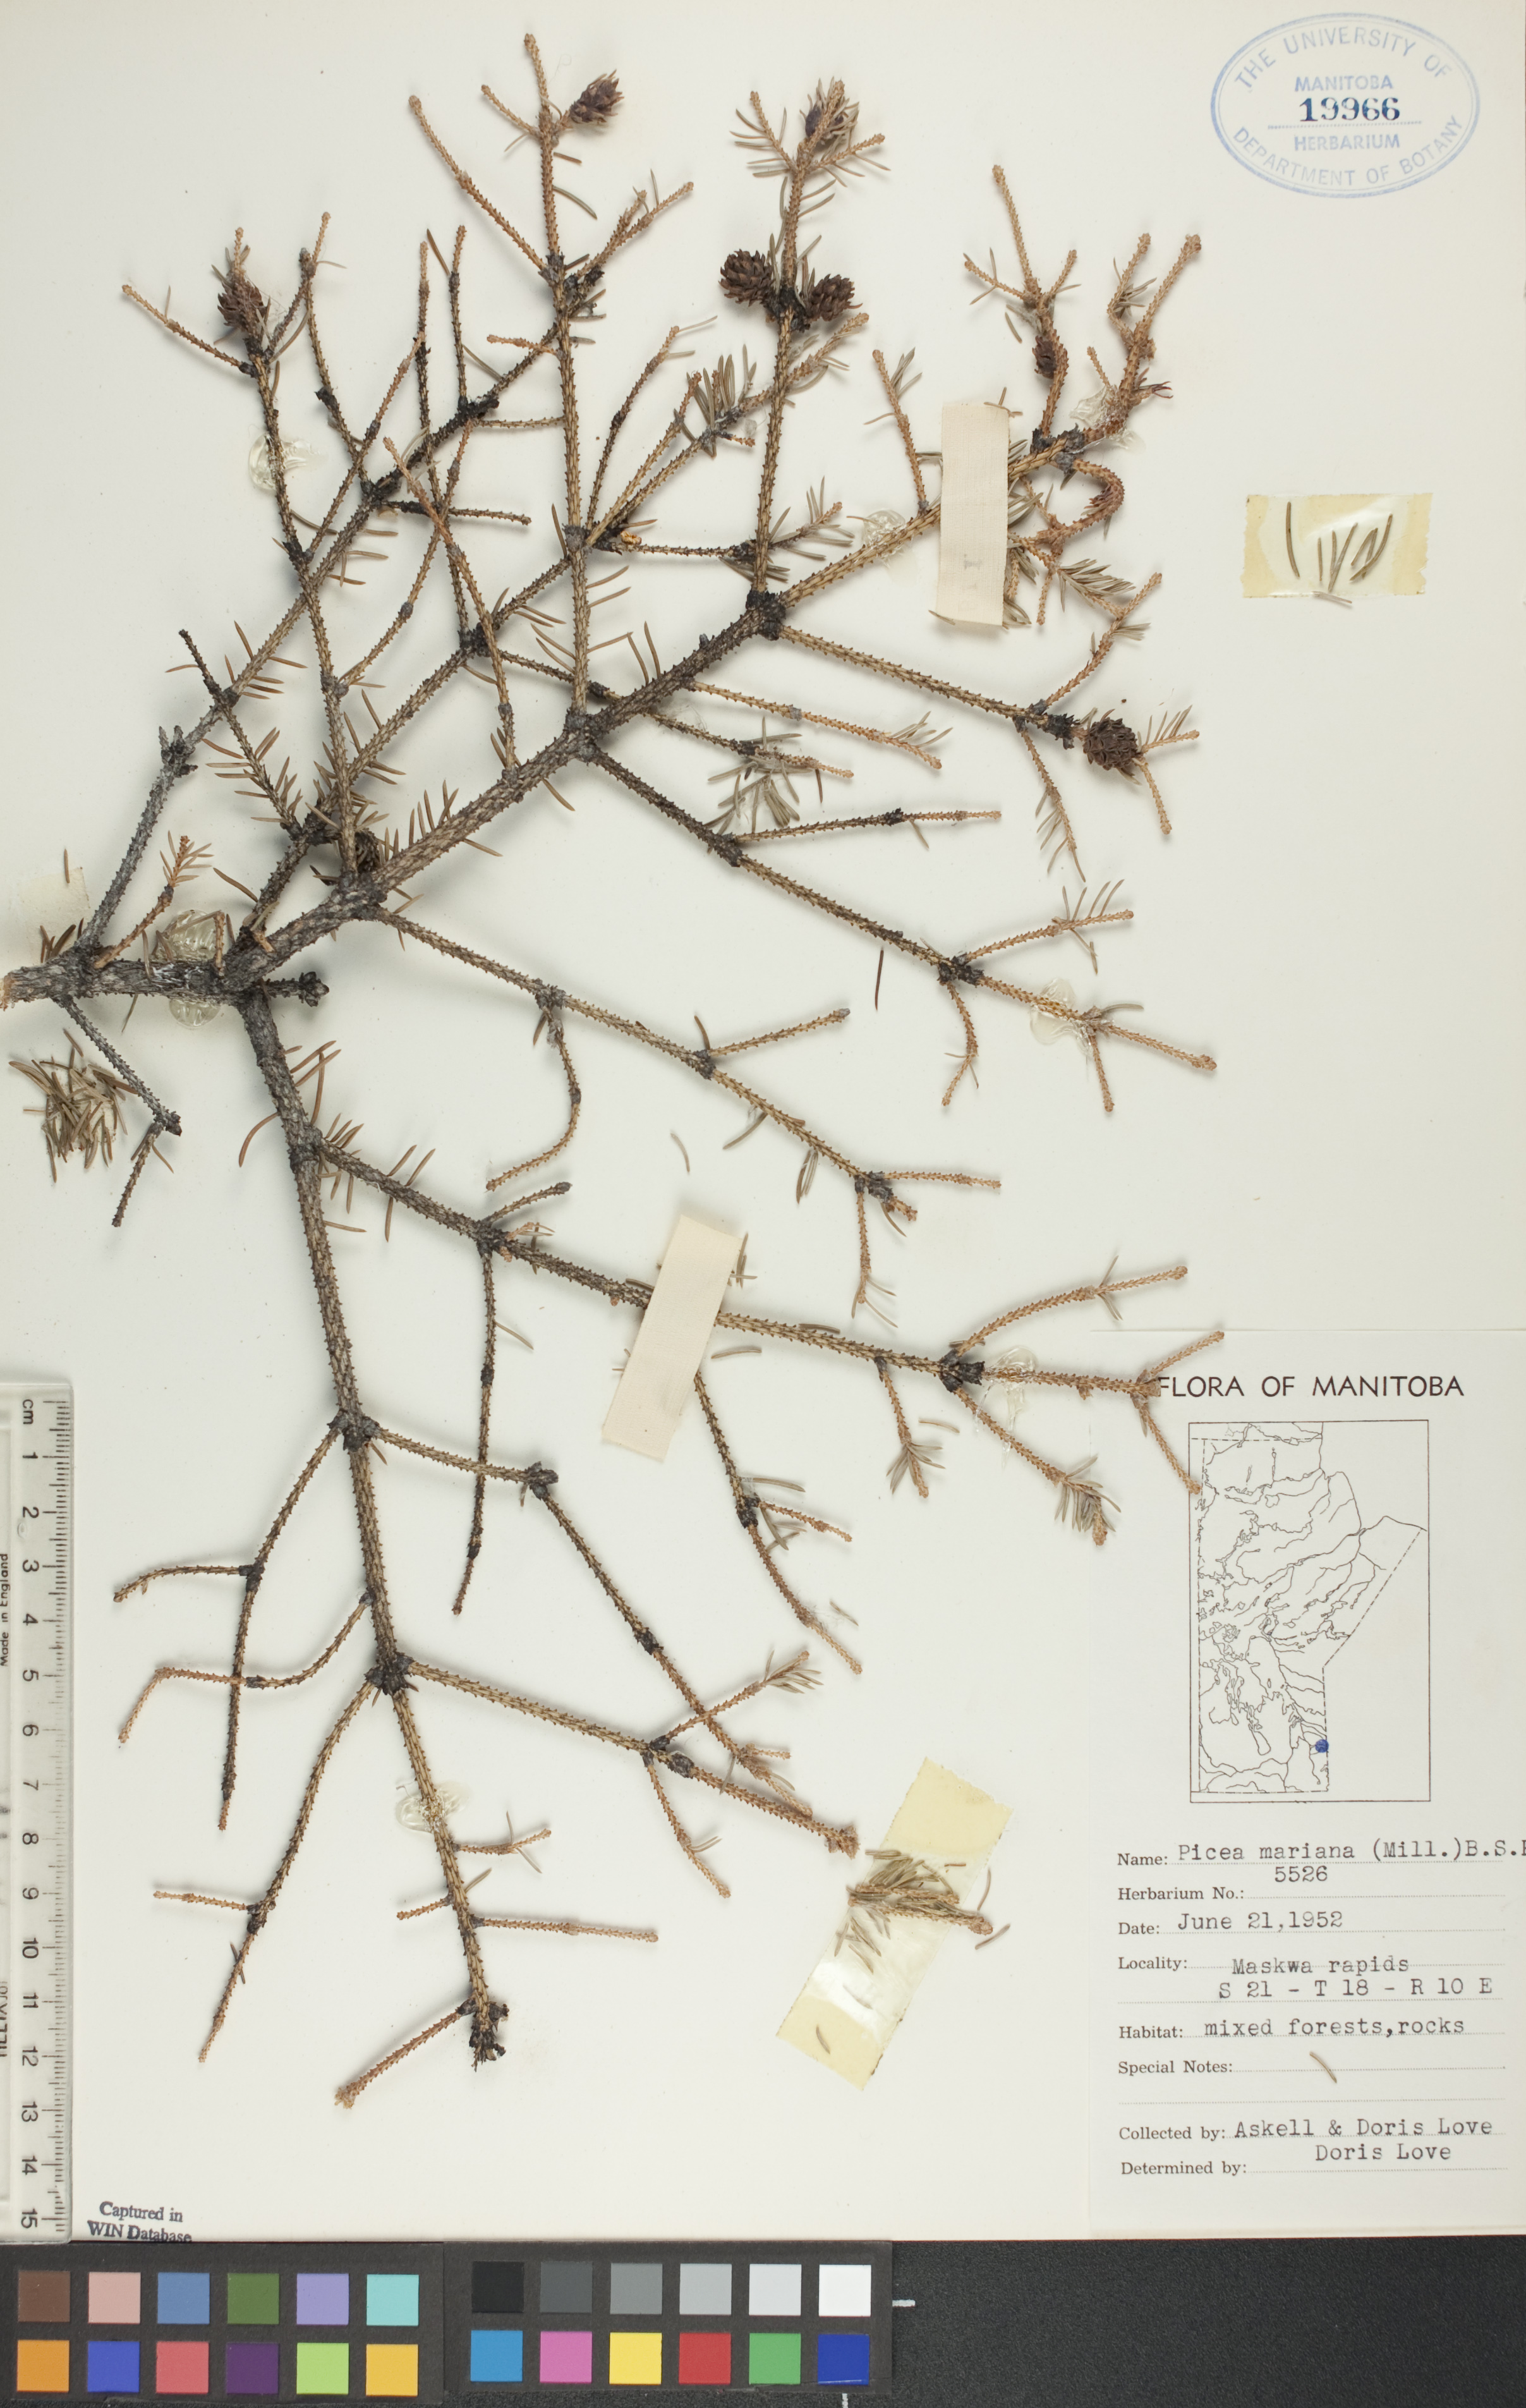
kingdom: Plantae
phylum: Tracheophyta
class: Pinopsida
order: Pinales
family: Pinaceae
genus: Picea
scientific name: Picea mariana
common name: Black spruce
